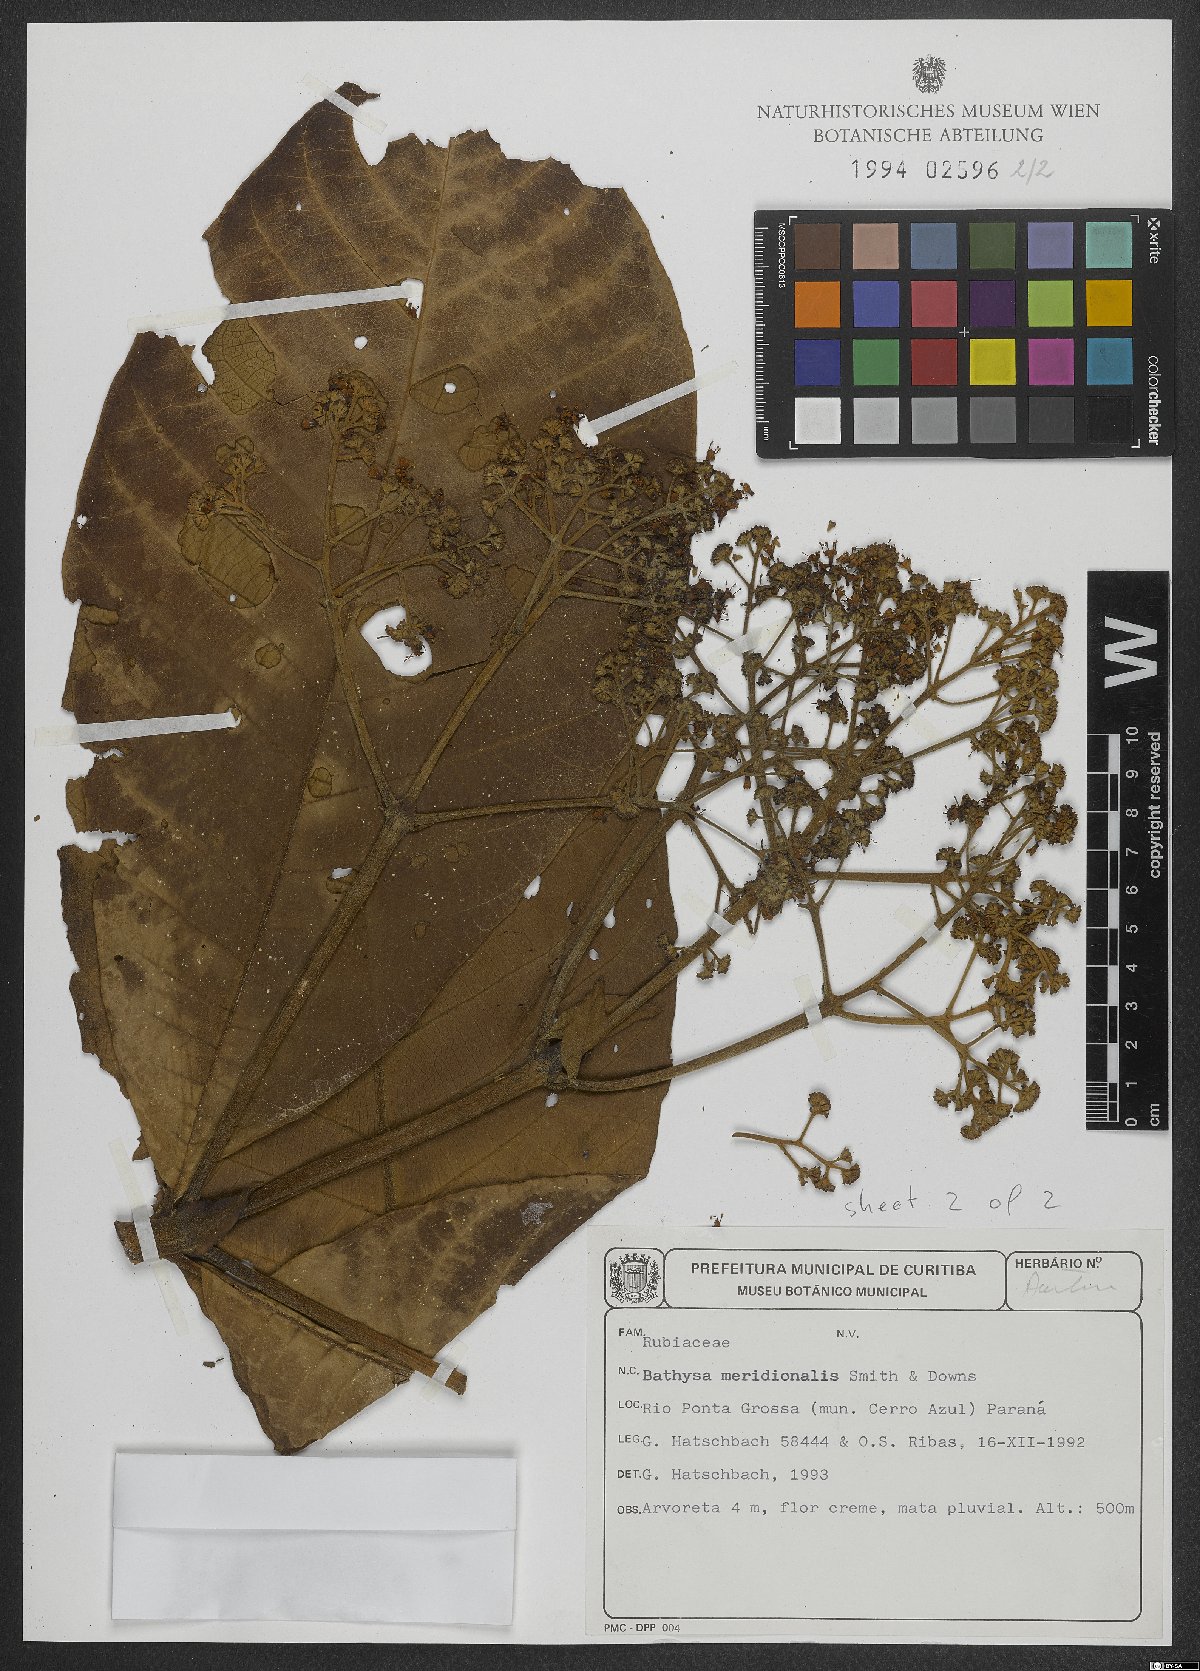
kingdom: Plantae
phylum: Tracheophyta
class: Magnoliopsida
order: Gentianales
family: Rubiaceae
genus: Bathysa
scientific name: Bathysa australis
